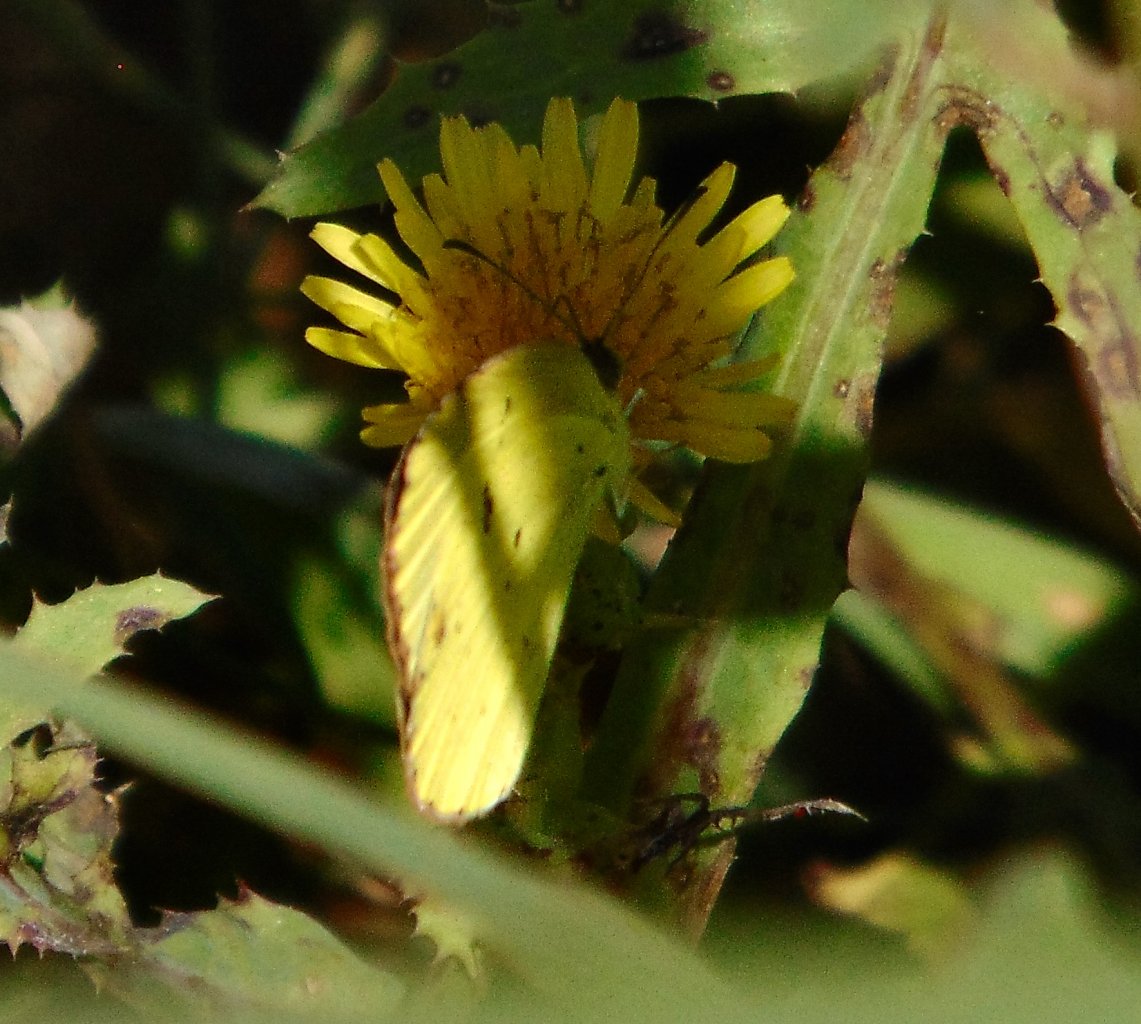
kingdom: Animalia
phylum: Arthropoda
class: Insecta
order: Lepidoptera
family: Pieridae
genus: Pyrisitia
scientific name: Pyrisitia lisa
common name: Little Yellow
